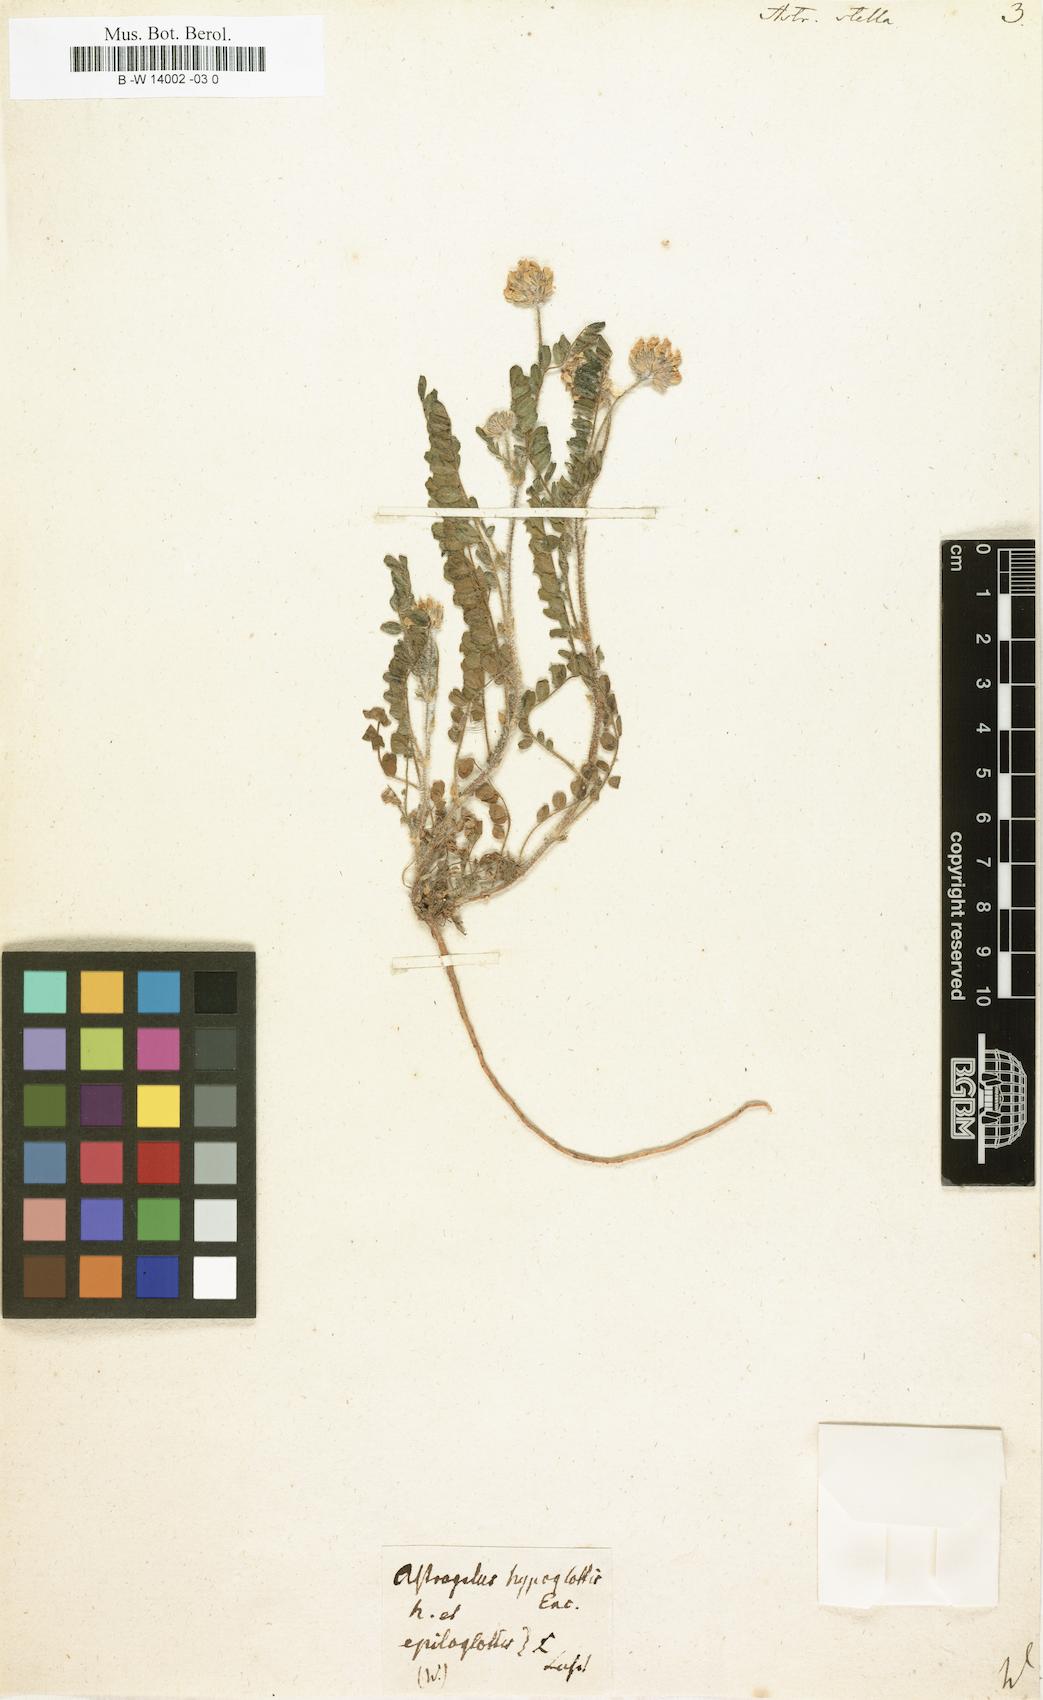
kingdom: Plantae
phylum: Tracheophyta
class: Magnoliopsida
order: Fabales
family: Fabaceae
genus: Astragalus
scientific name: Astragalus stella
